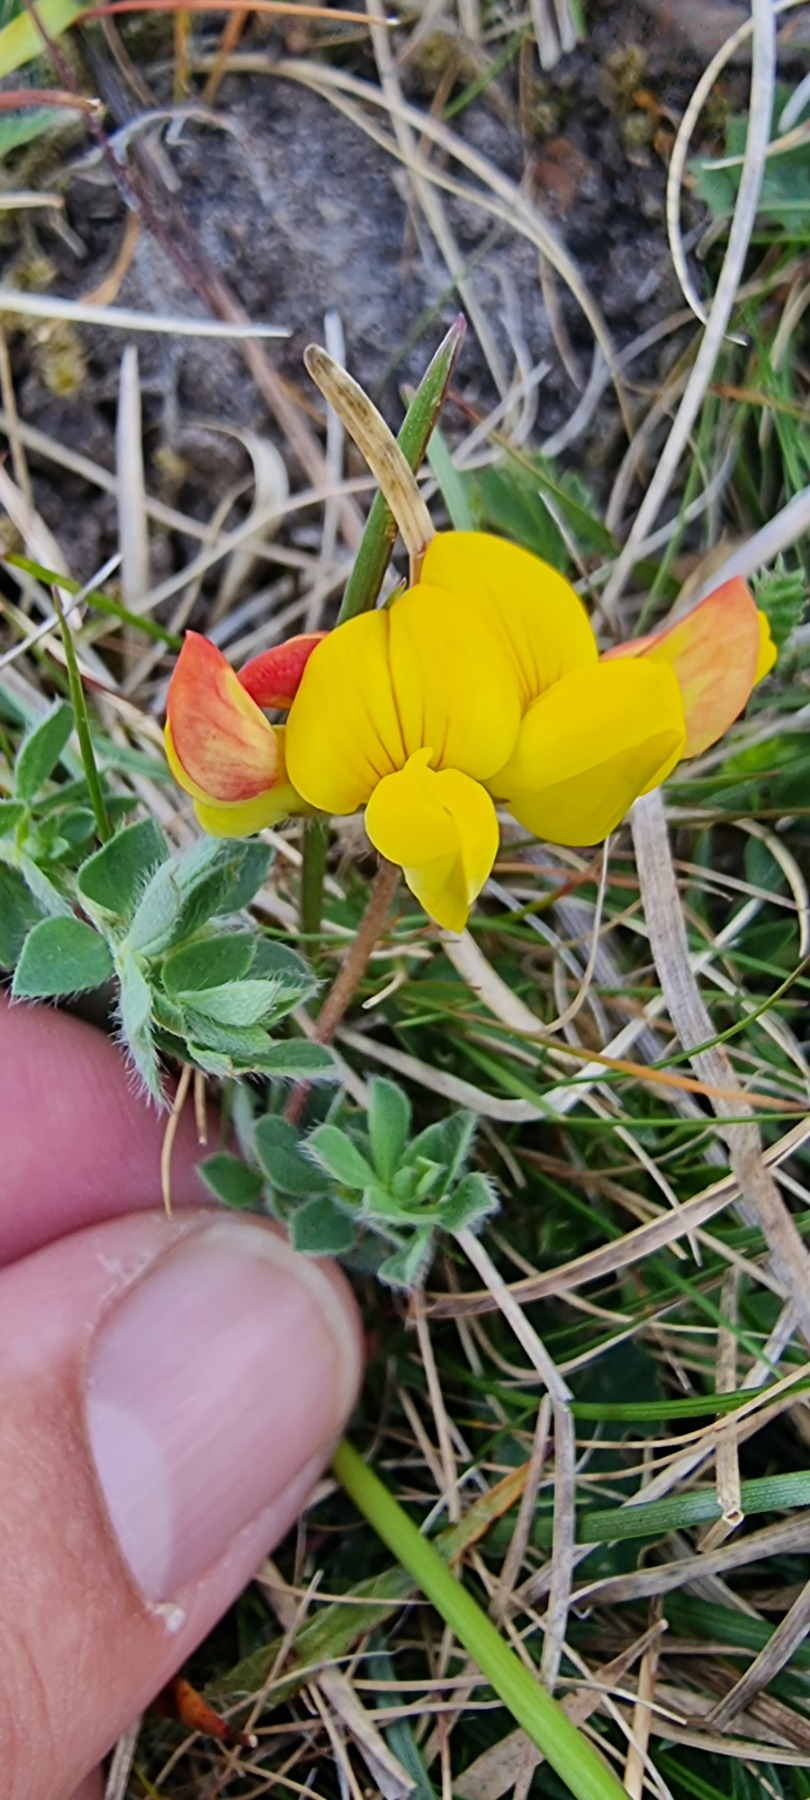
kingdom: Plantae
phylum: Tracheophyta
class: Magnoliopsida
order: Fabales
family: Fabaceae
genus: Lotus
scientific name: Lotus corniculatus
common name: Almindelig kællingetand
